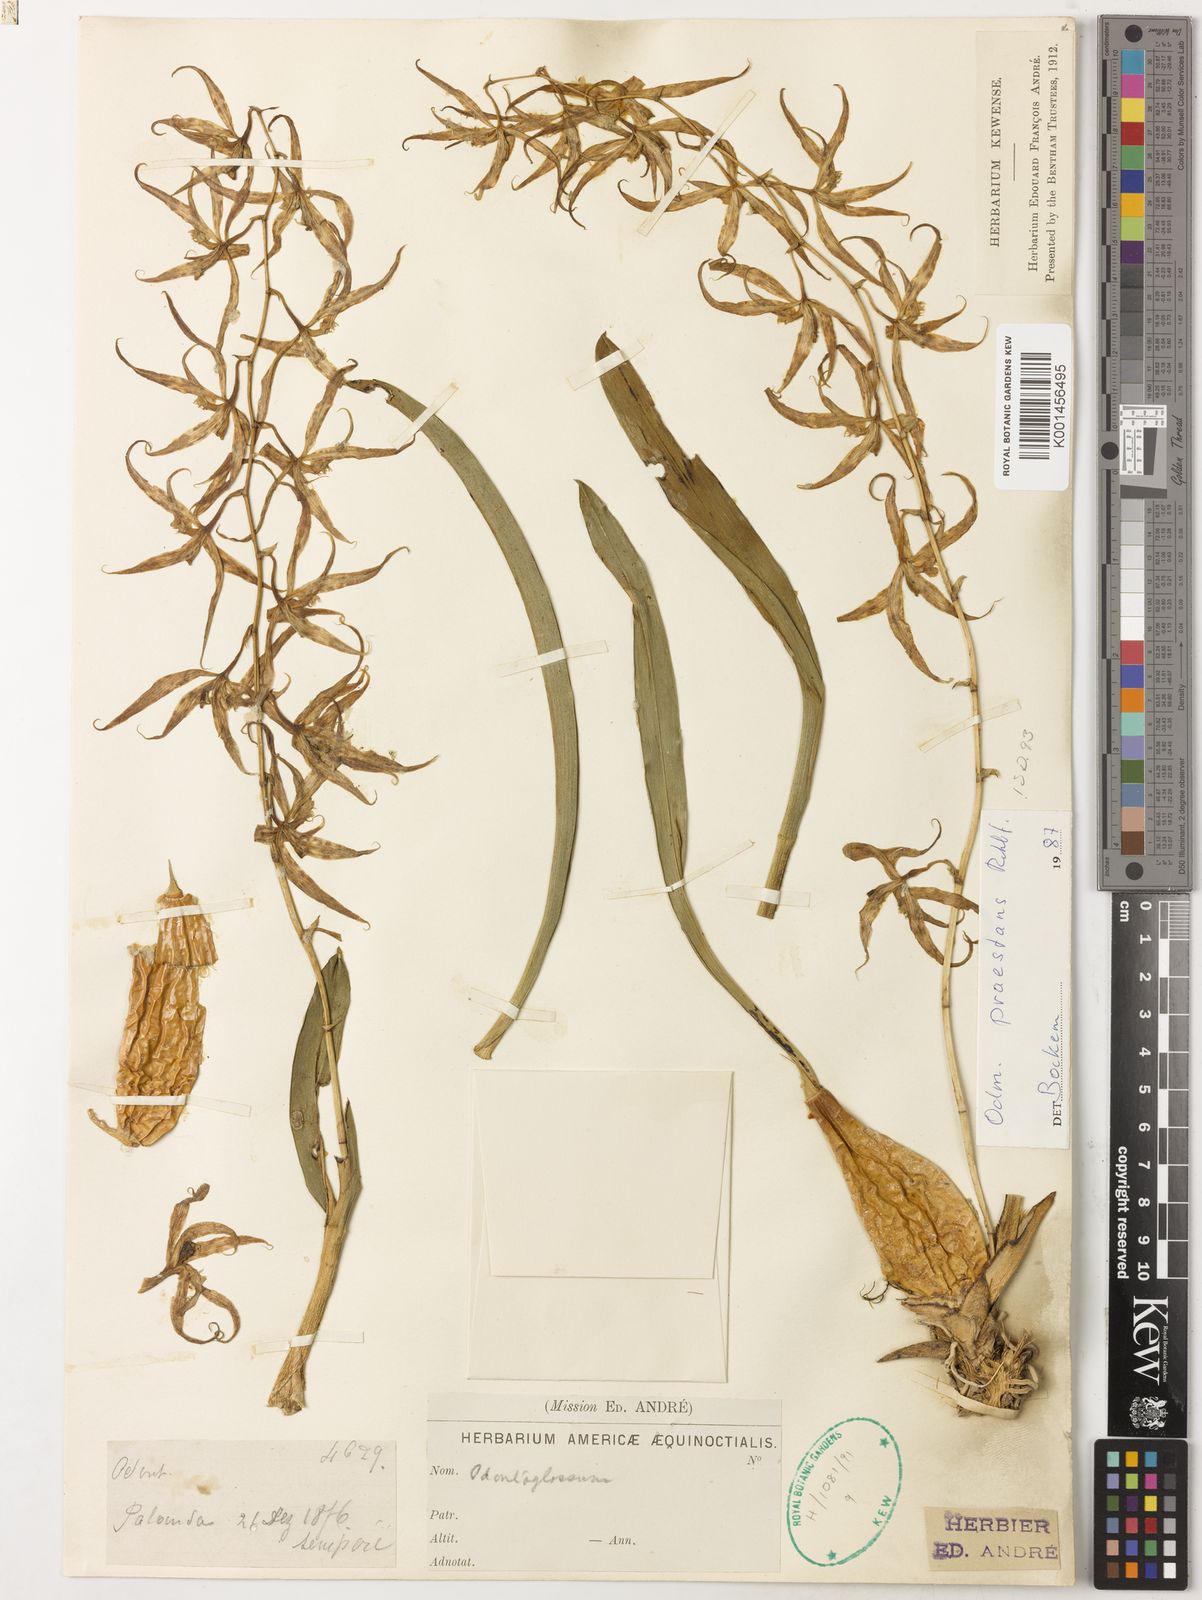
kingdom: Plantae
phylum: Tracheophyta
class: Liliopsida
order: Asparagales
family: Orchidaceae
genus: Oncidium
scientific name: Oncidium praestanoides
